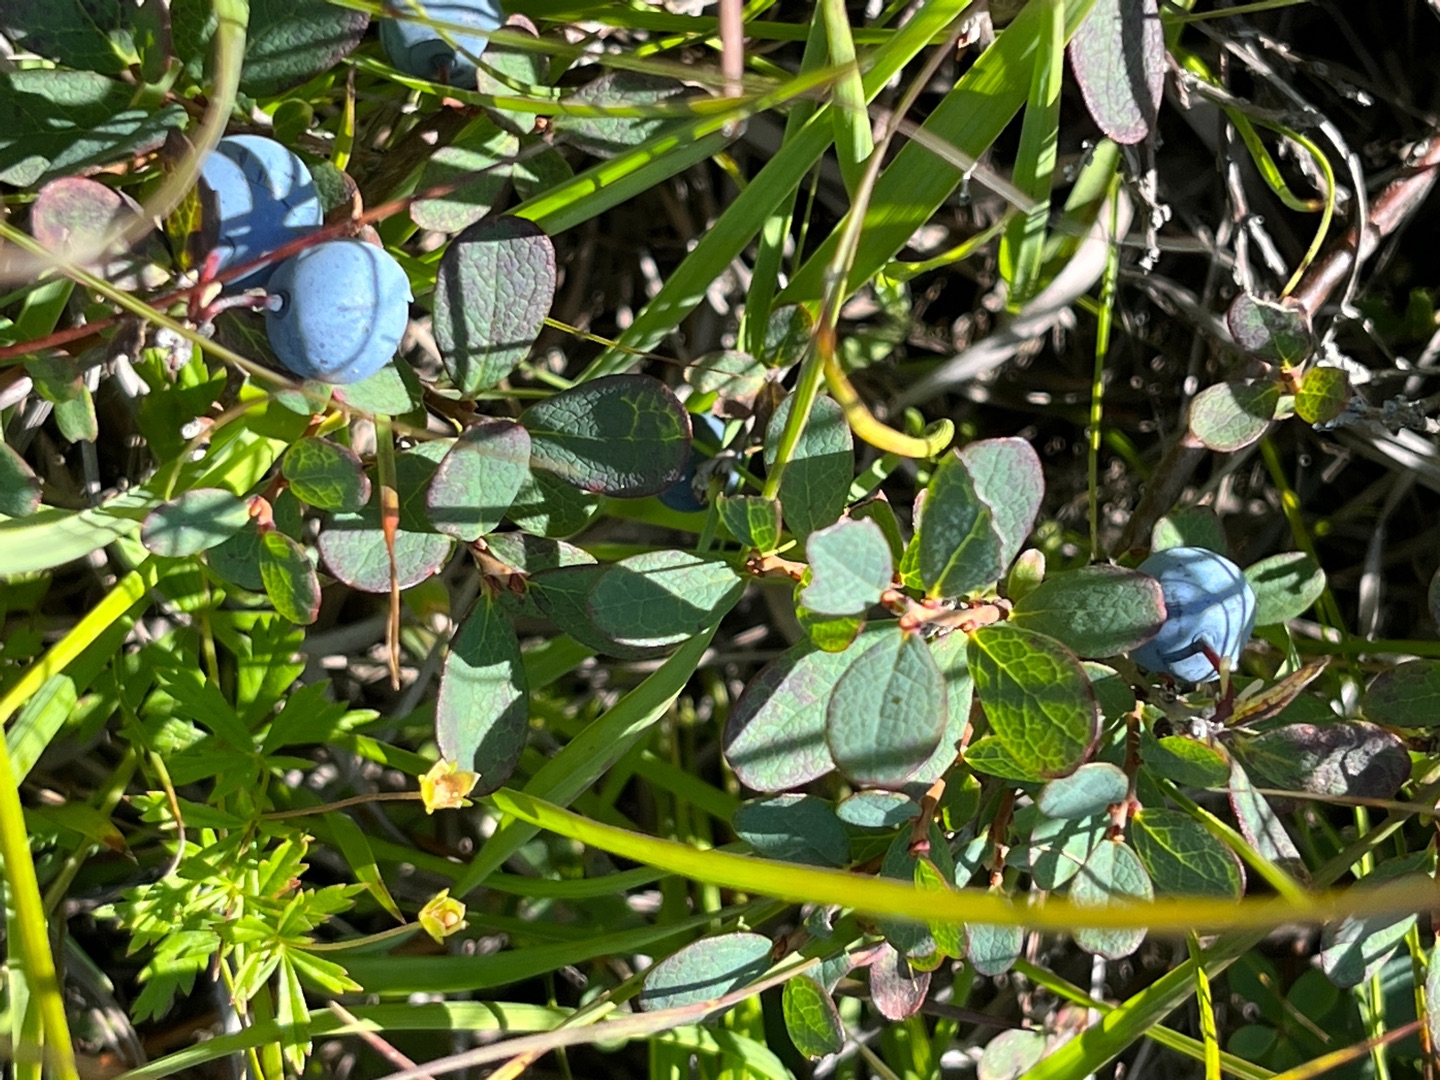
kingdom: Plantae
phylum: Tracheophyta
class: Magnoliopsida
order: Ericales
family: Ericaceae
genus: Vaccinium
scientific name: Vaccinium uliginosum
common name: Mose-bølle
